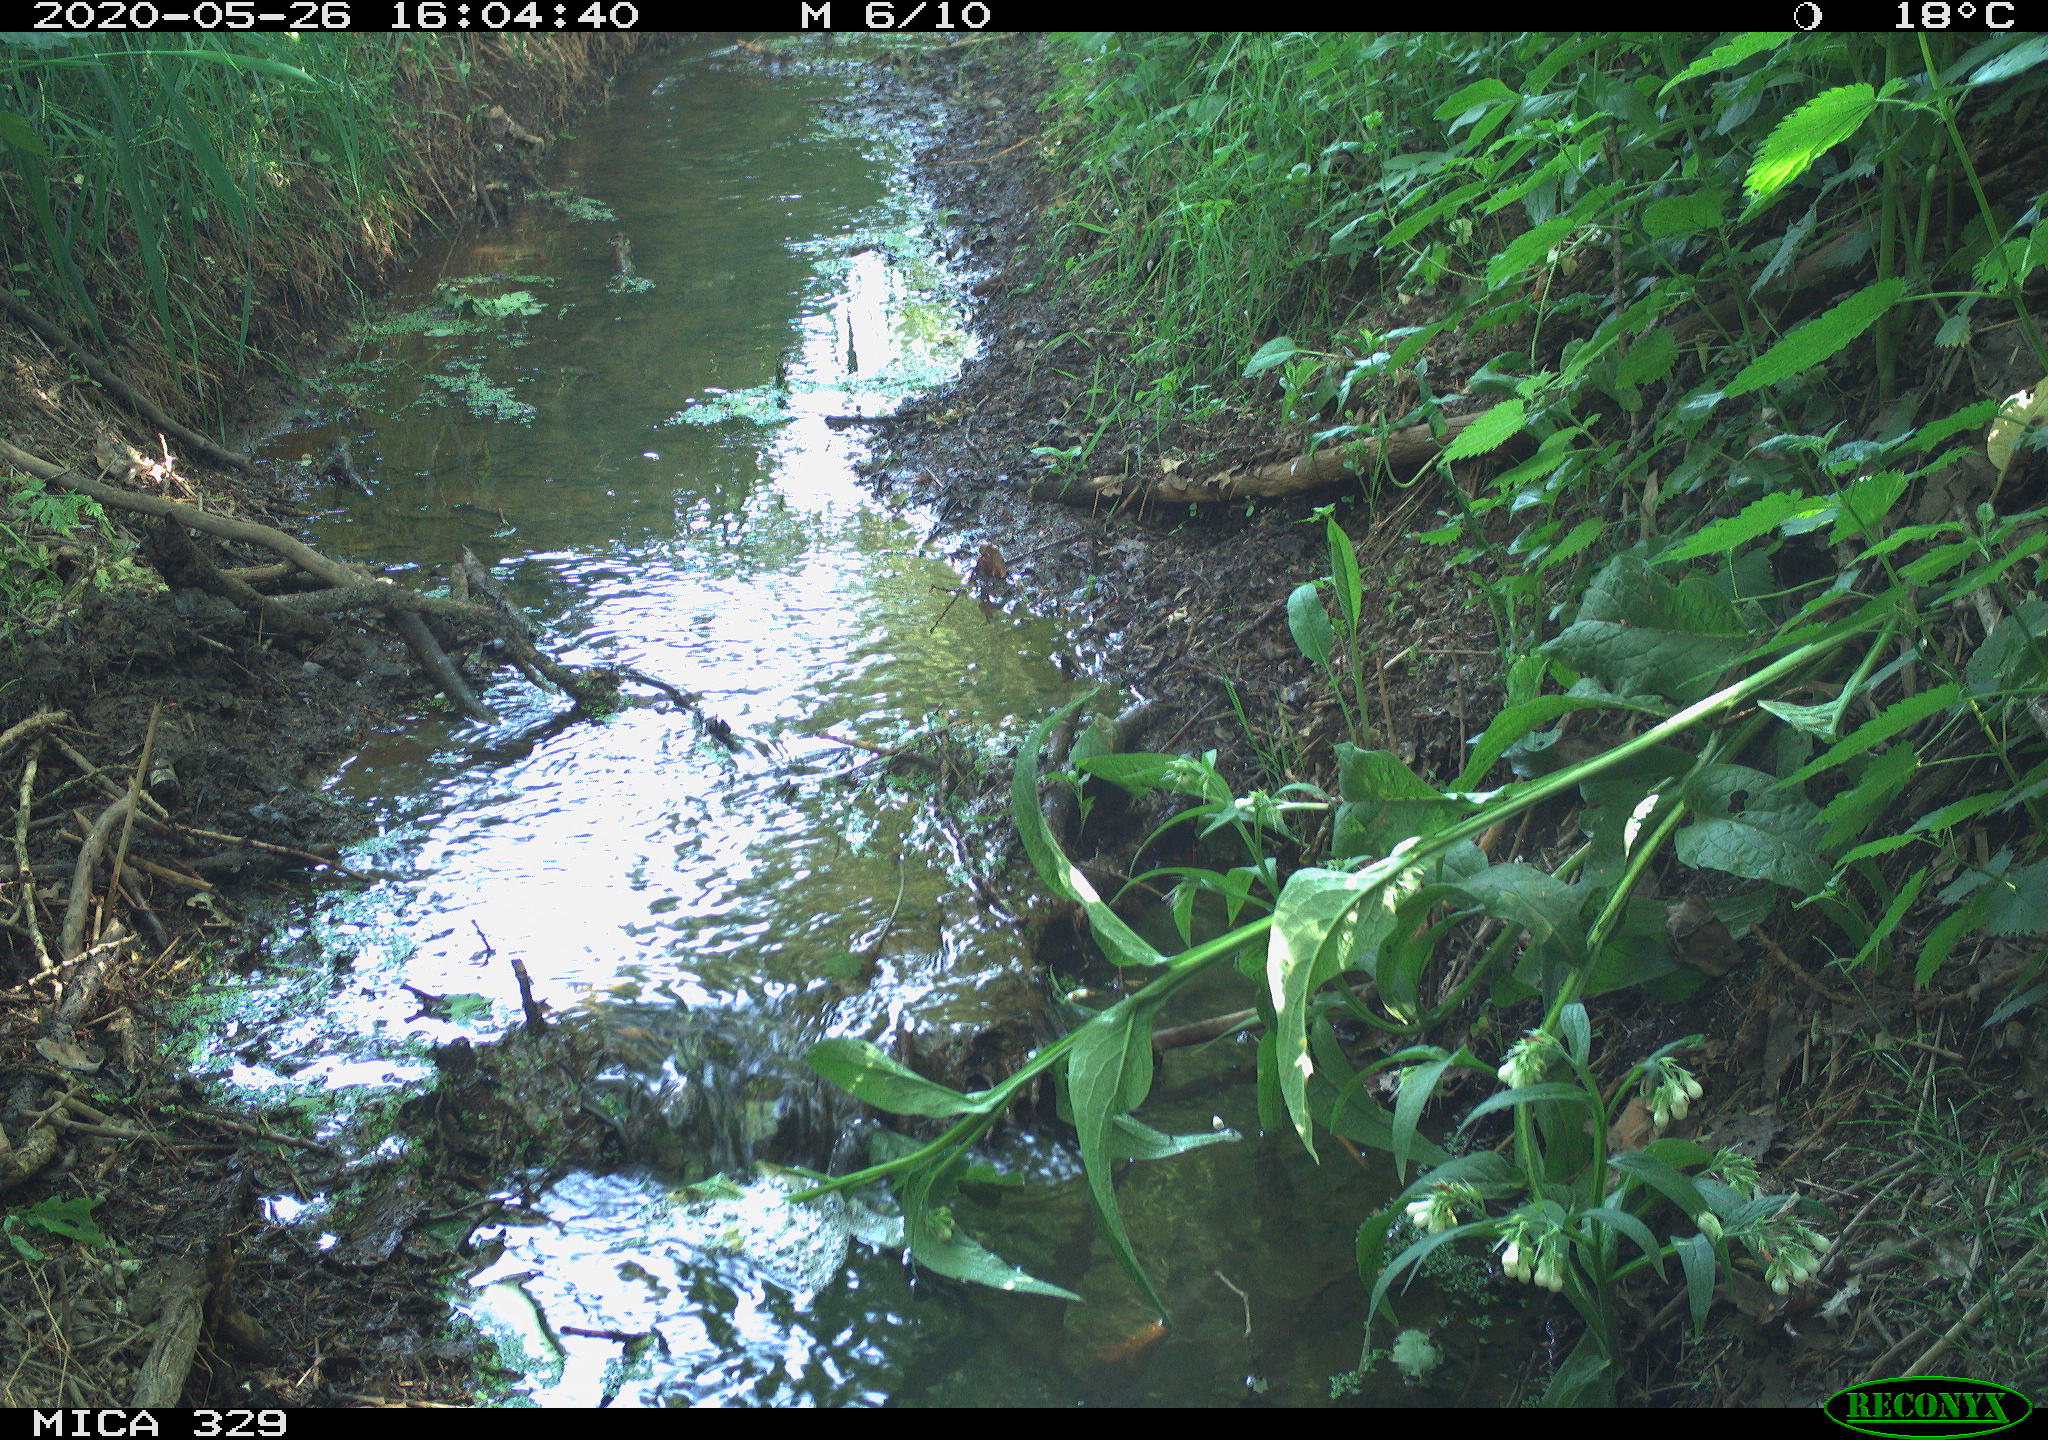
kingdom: Animalia
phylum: Chordata
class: Aves
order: Passeriformes
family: Turdidae
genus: Turdus
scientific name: Turdus merula
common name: Common blackbird
